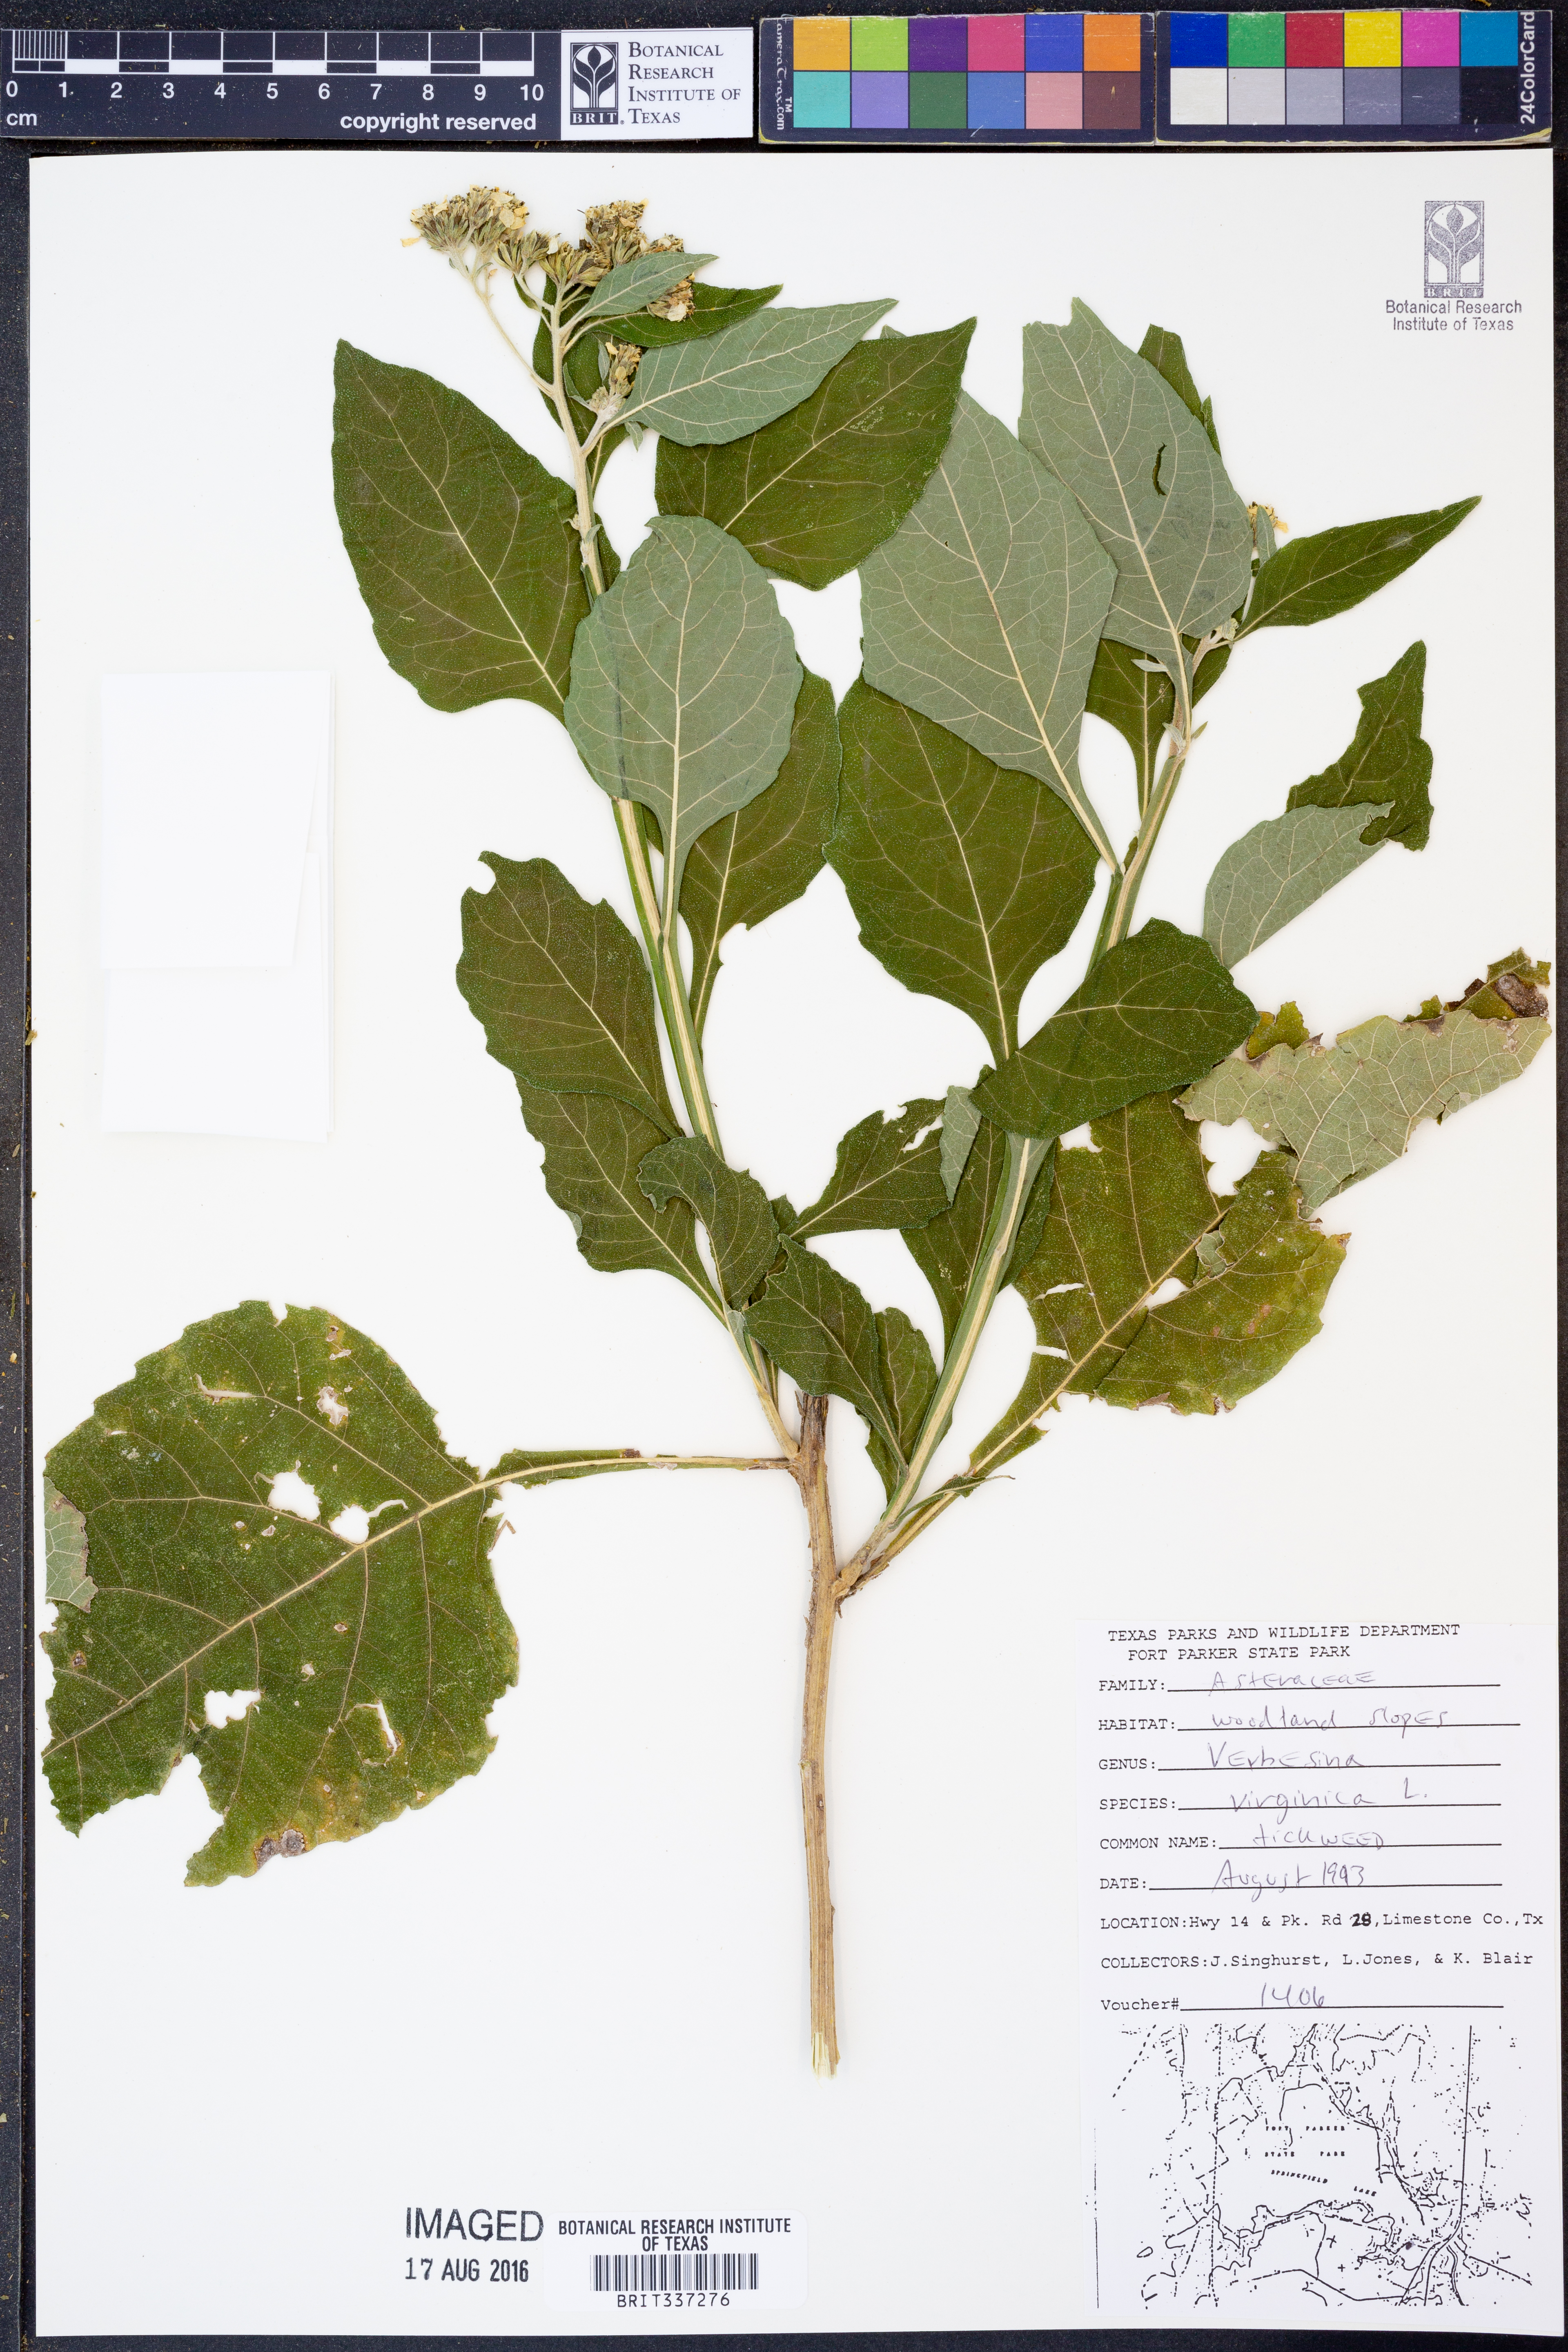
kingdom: Plantae
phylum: Tracheophyta
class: Magnoliopsida
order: Asterales
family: Asteraceae
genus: Verbesina
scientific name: Verbesina virginica
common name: Frostweed
